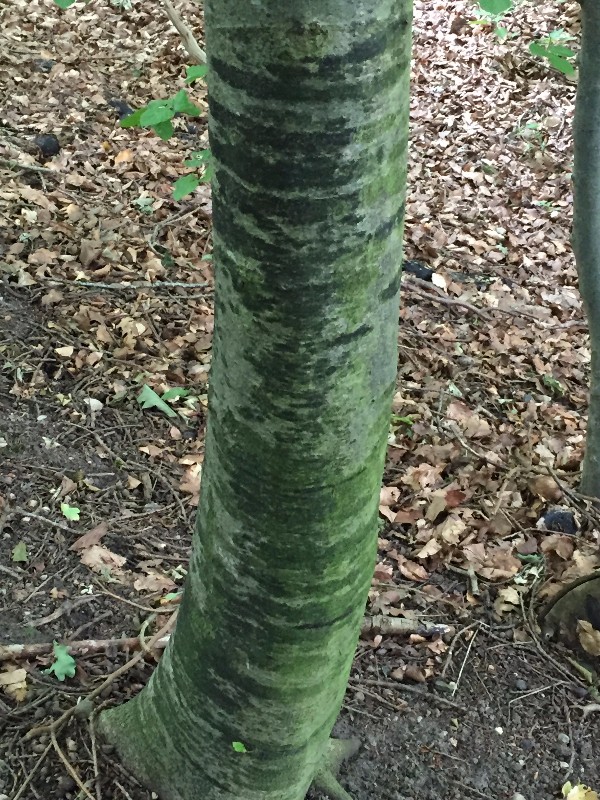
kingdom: Fungi
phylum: Ascomycota
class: Leotiomycetes
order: Rhytismatales
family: Ascodichaenaceae
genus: Ascodichaena
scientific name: Ascodichaena rugosa
